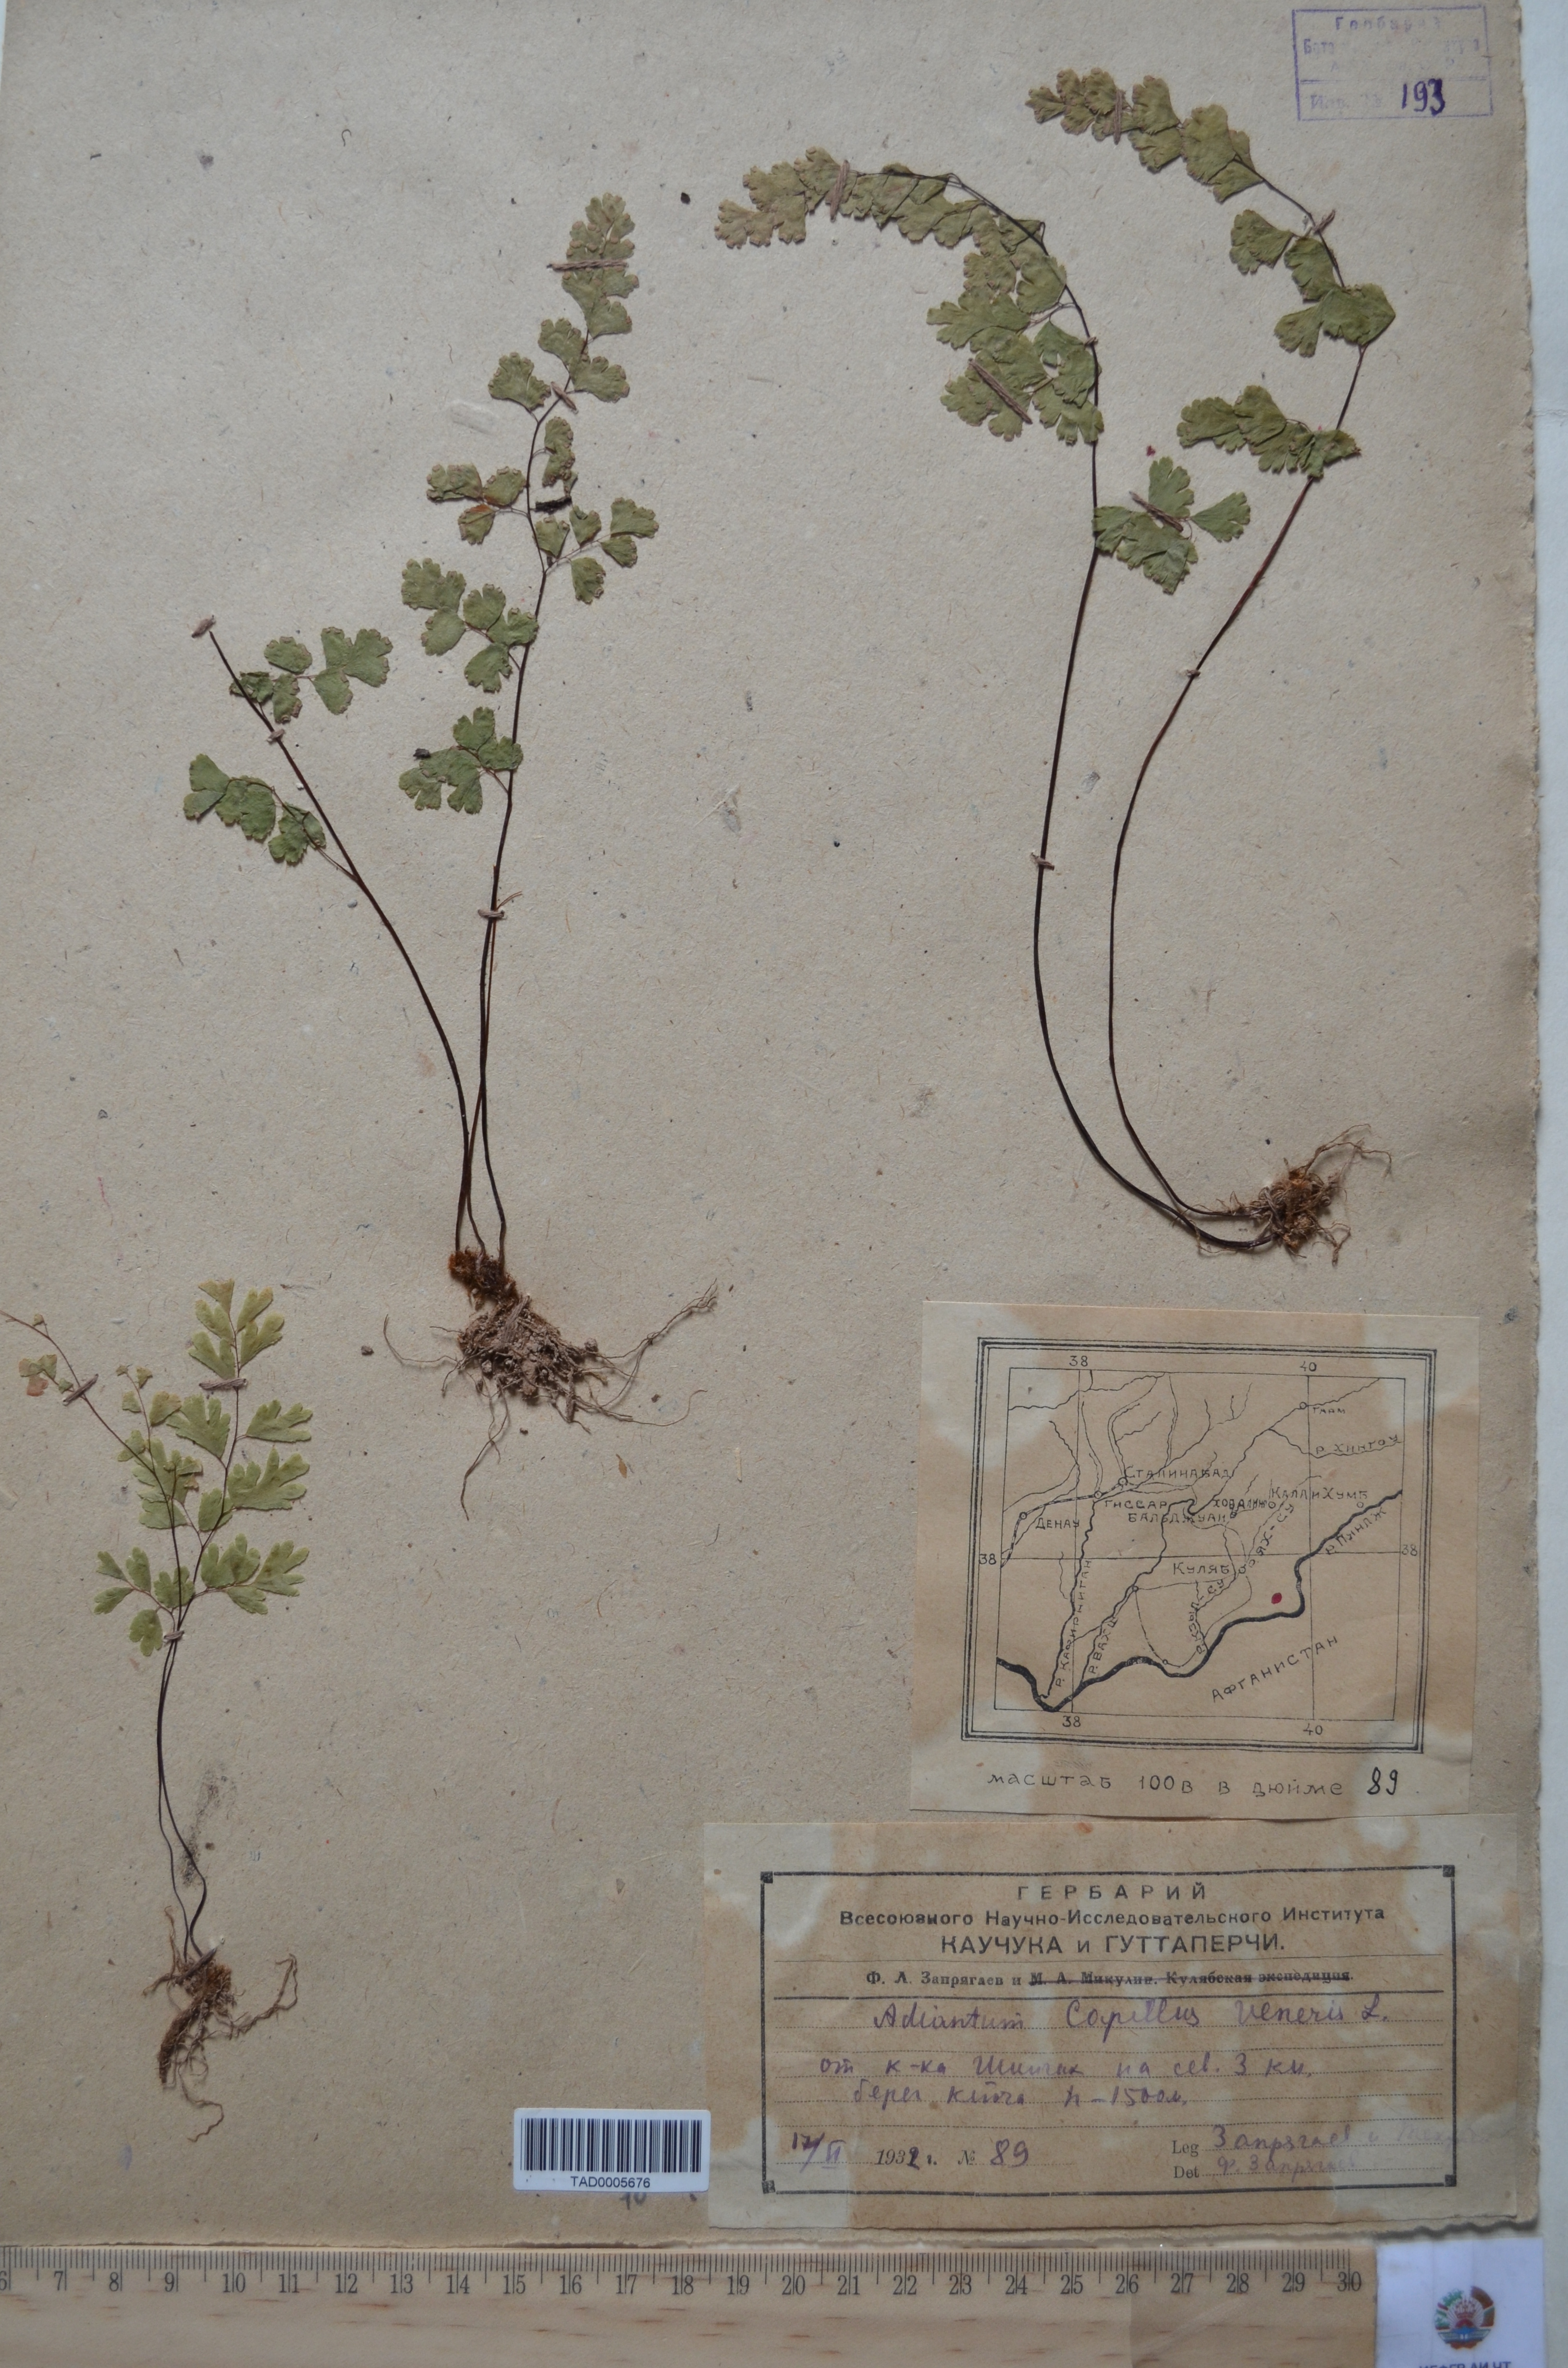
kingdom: Plantae
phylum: Tracheophyta
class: Polypodiopsida
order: Polypodiales
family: Pteridaceae
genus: Adiantum
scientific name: Adiantum capillus-veneris
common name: Maidenhair fern
